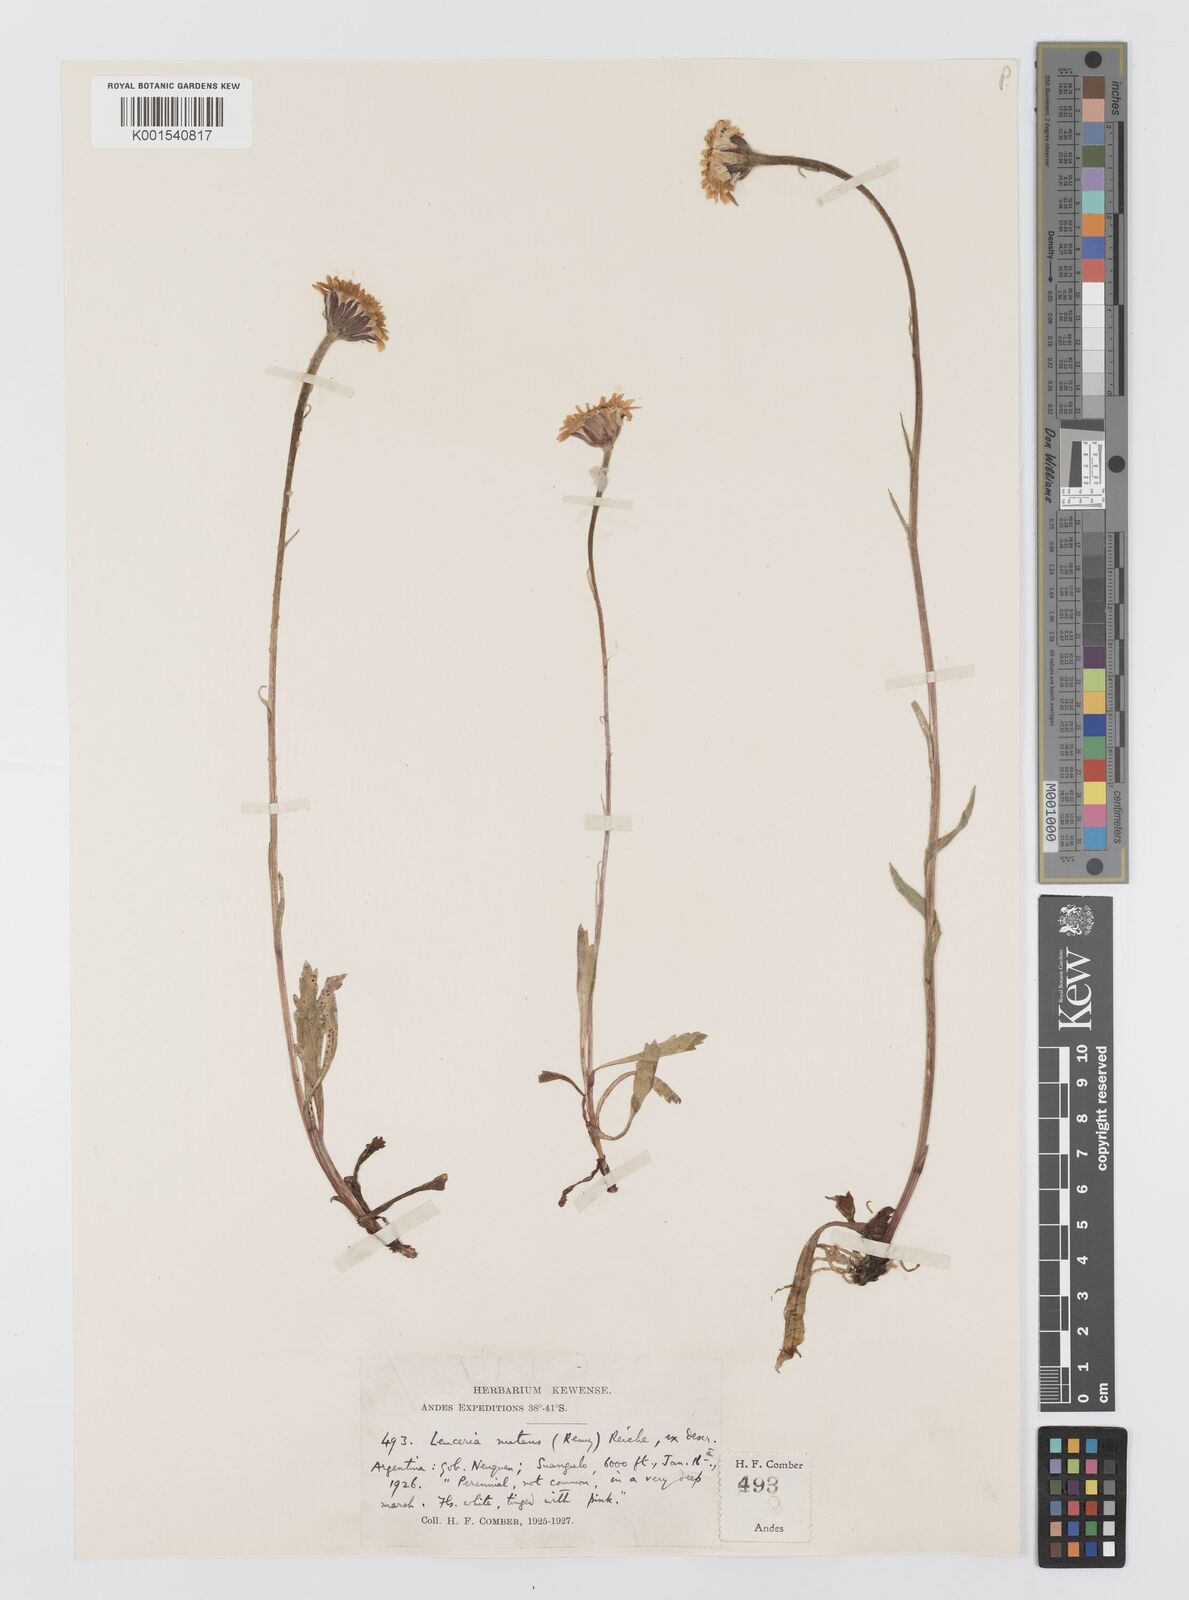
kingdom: Plantae
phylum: Tracheophyta
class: Magnoliopsida
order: Asterales
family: Asteraceae
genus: Leucheria
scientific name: Leucheria nutans
